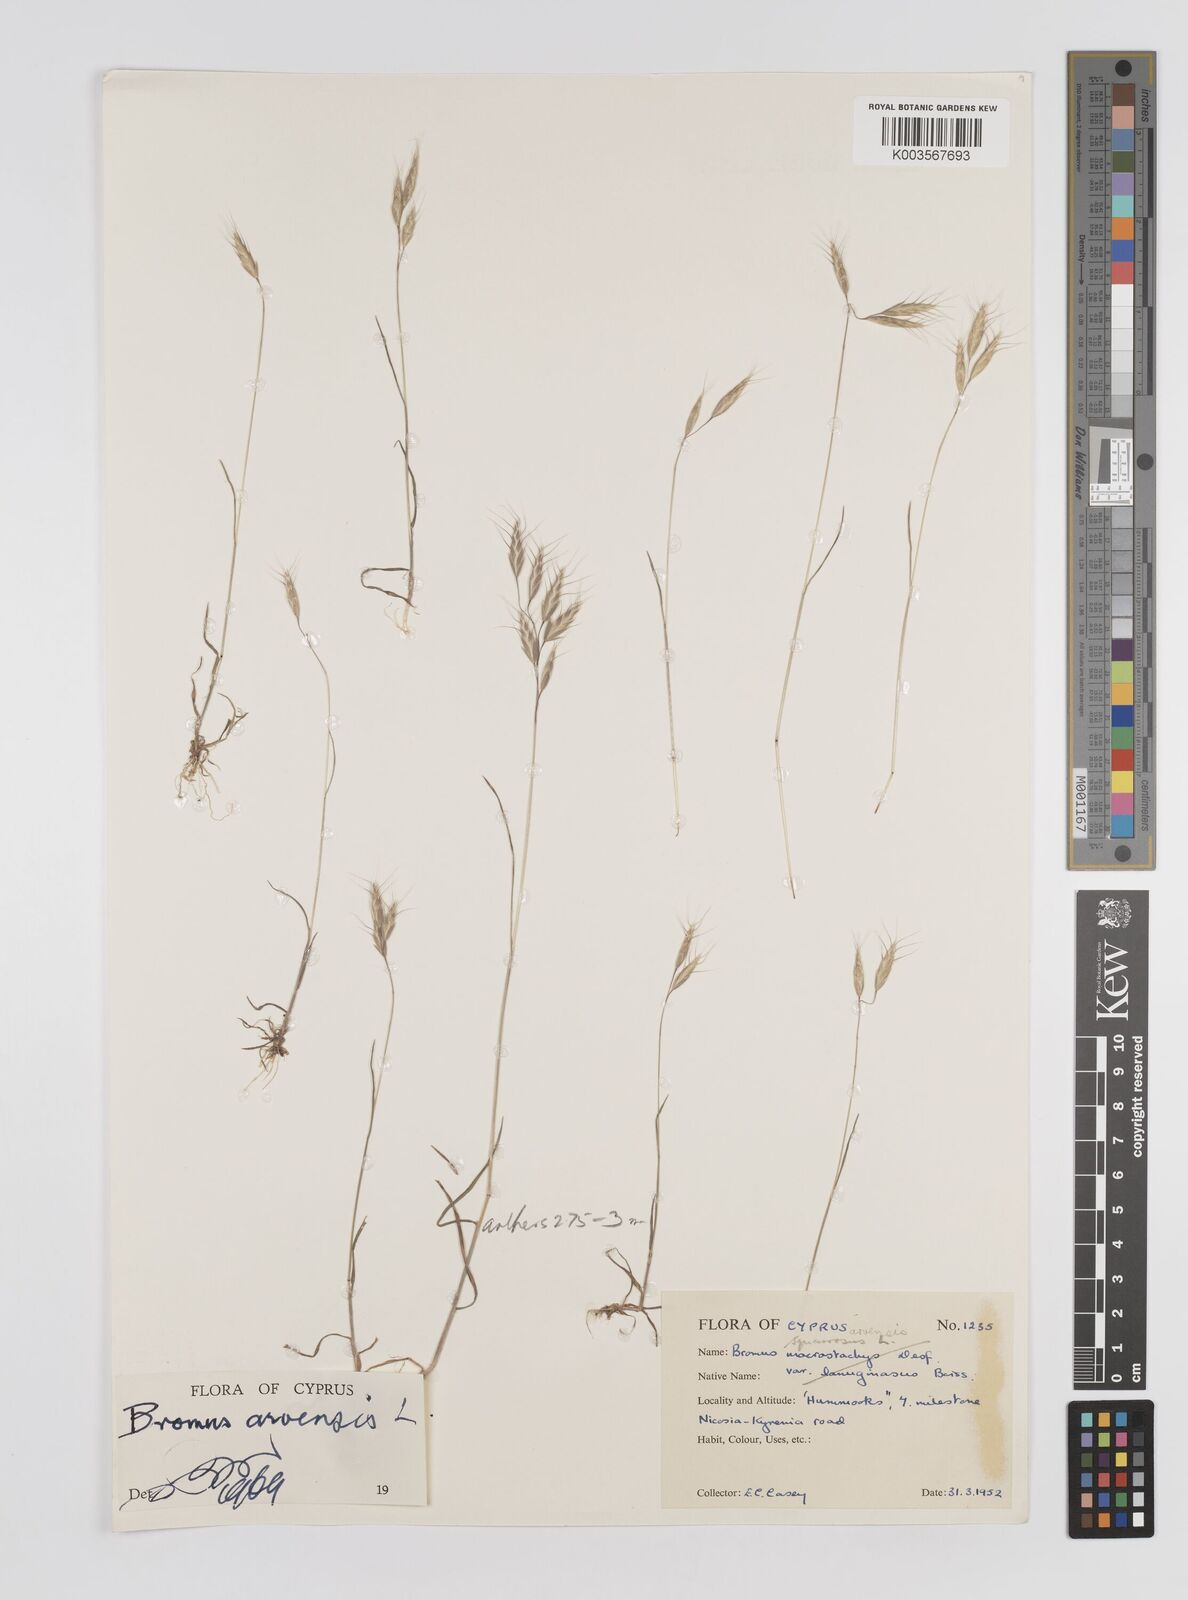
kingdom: Plantae
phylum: Tracheophyta
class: Liliopsida
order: Poales
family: Poaceae
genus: Bromus
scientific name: Bromus
